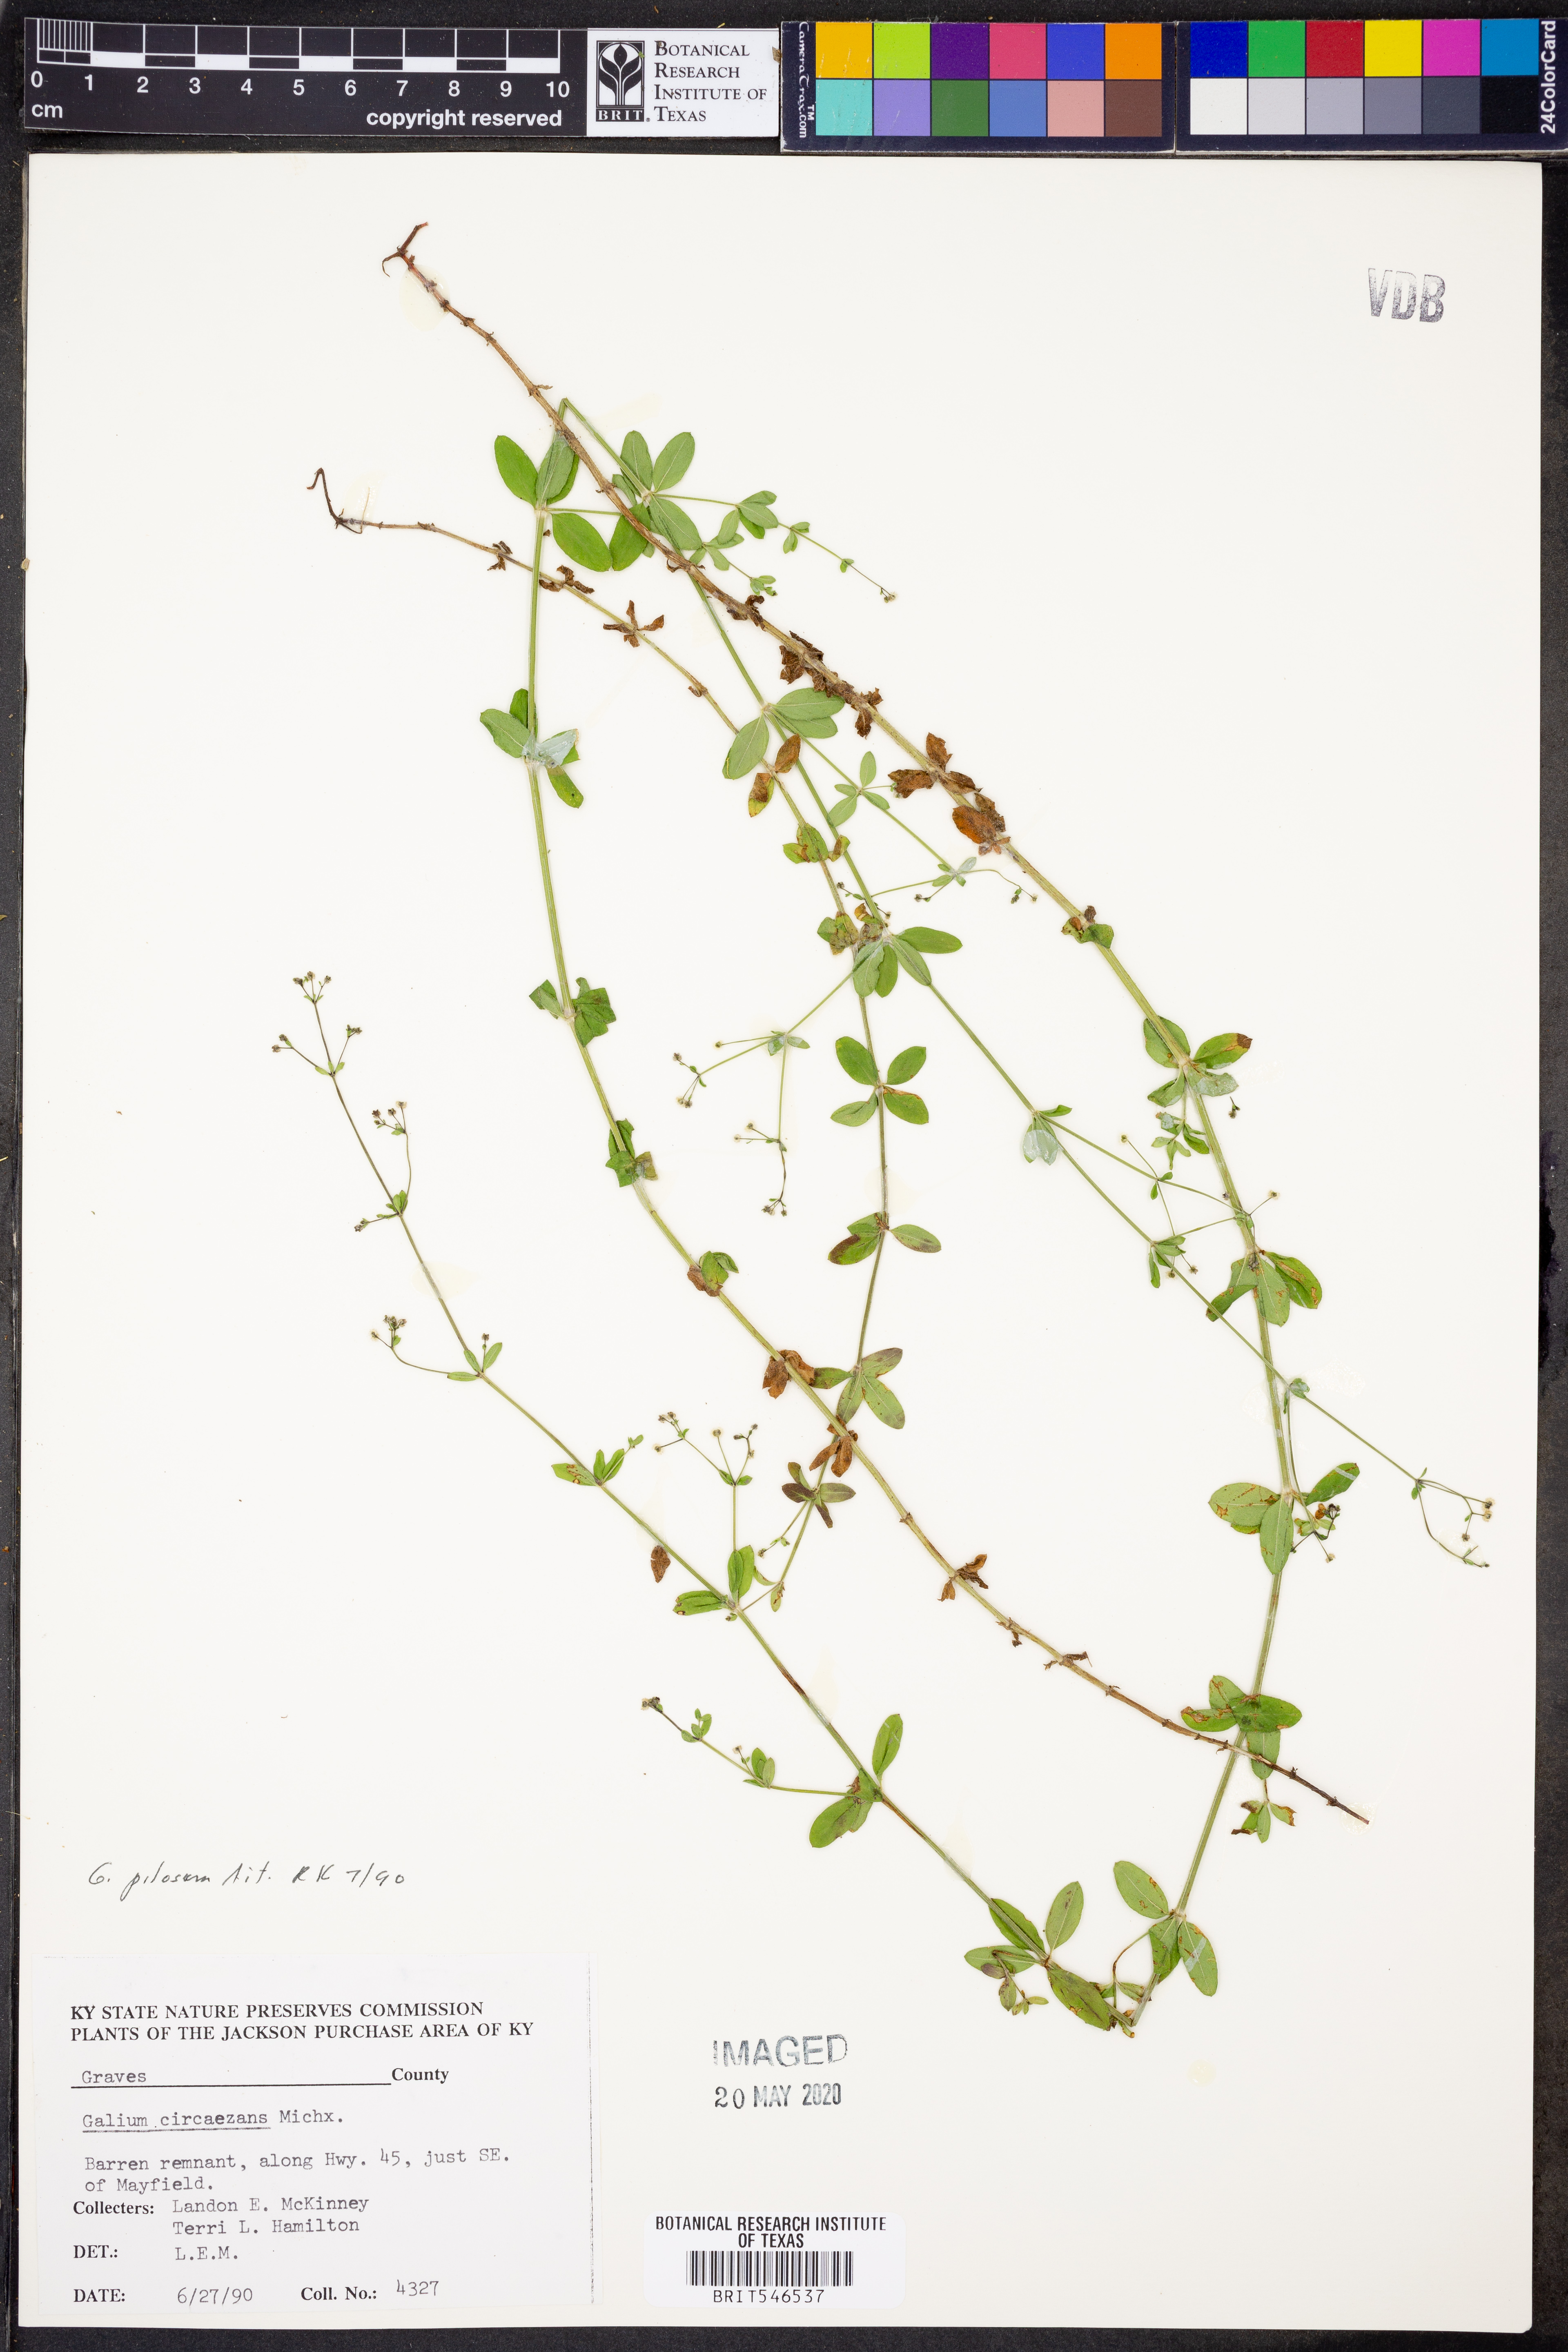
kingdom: Plantae
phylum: Tracheophyta
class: Magnoliopsida
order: Gentianales
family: Rubiaceae
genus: Galium
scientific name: Galium pilosum
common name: Hairy bedstraw
